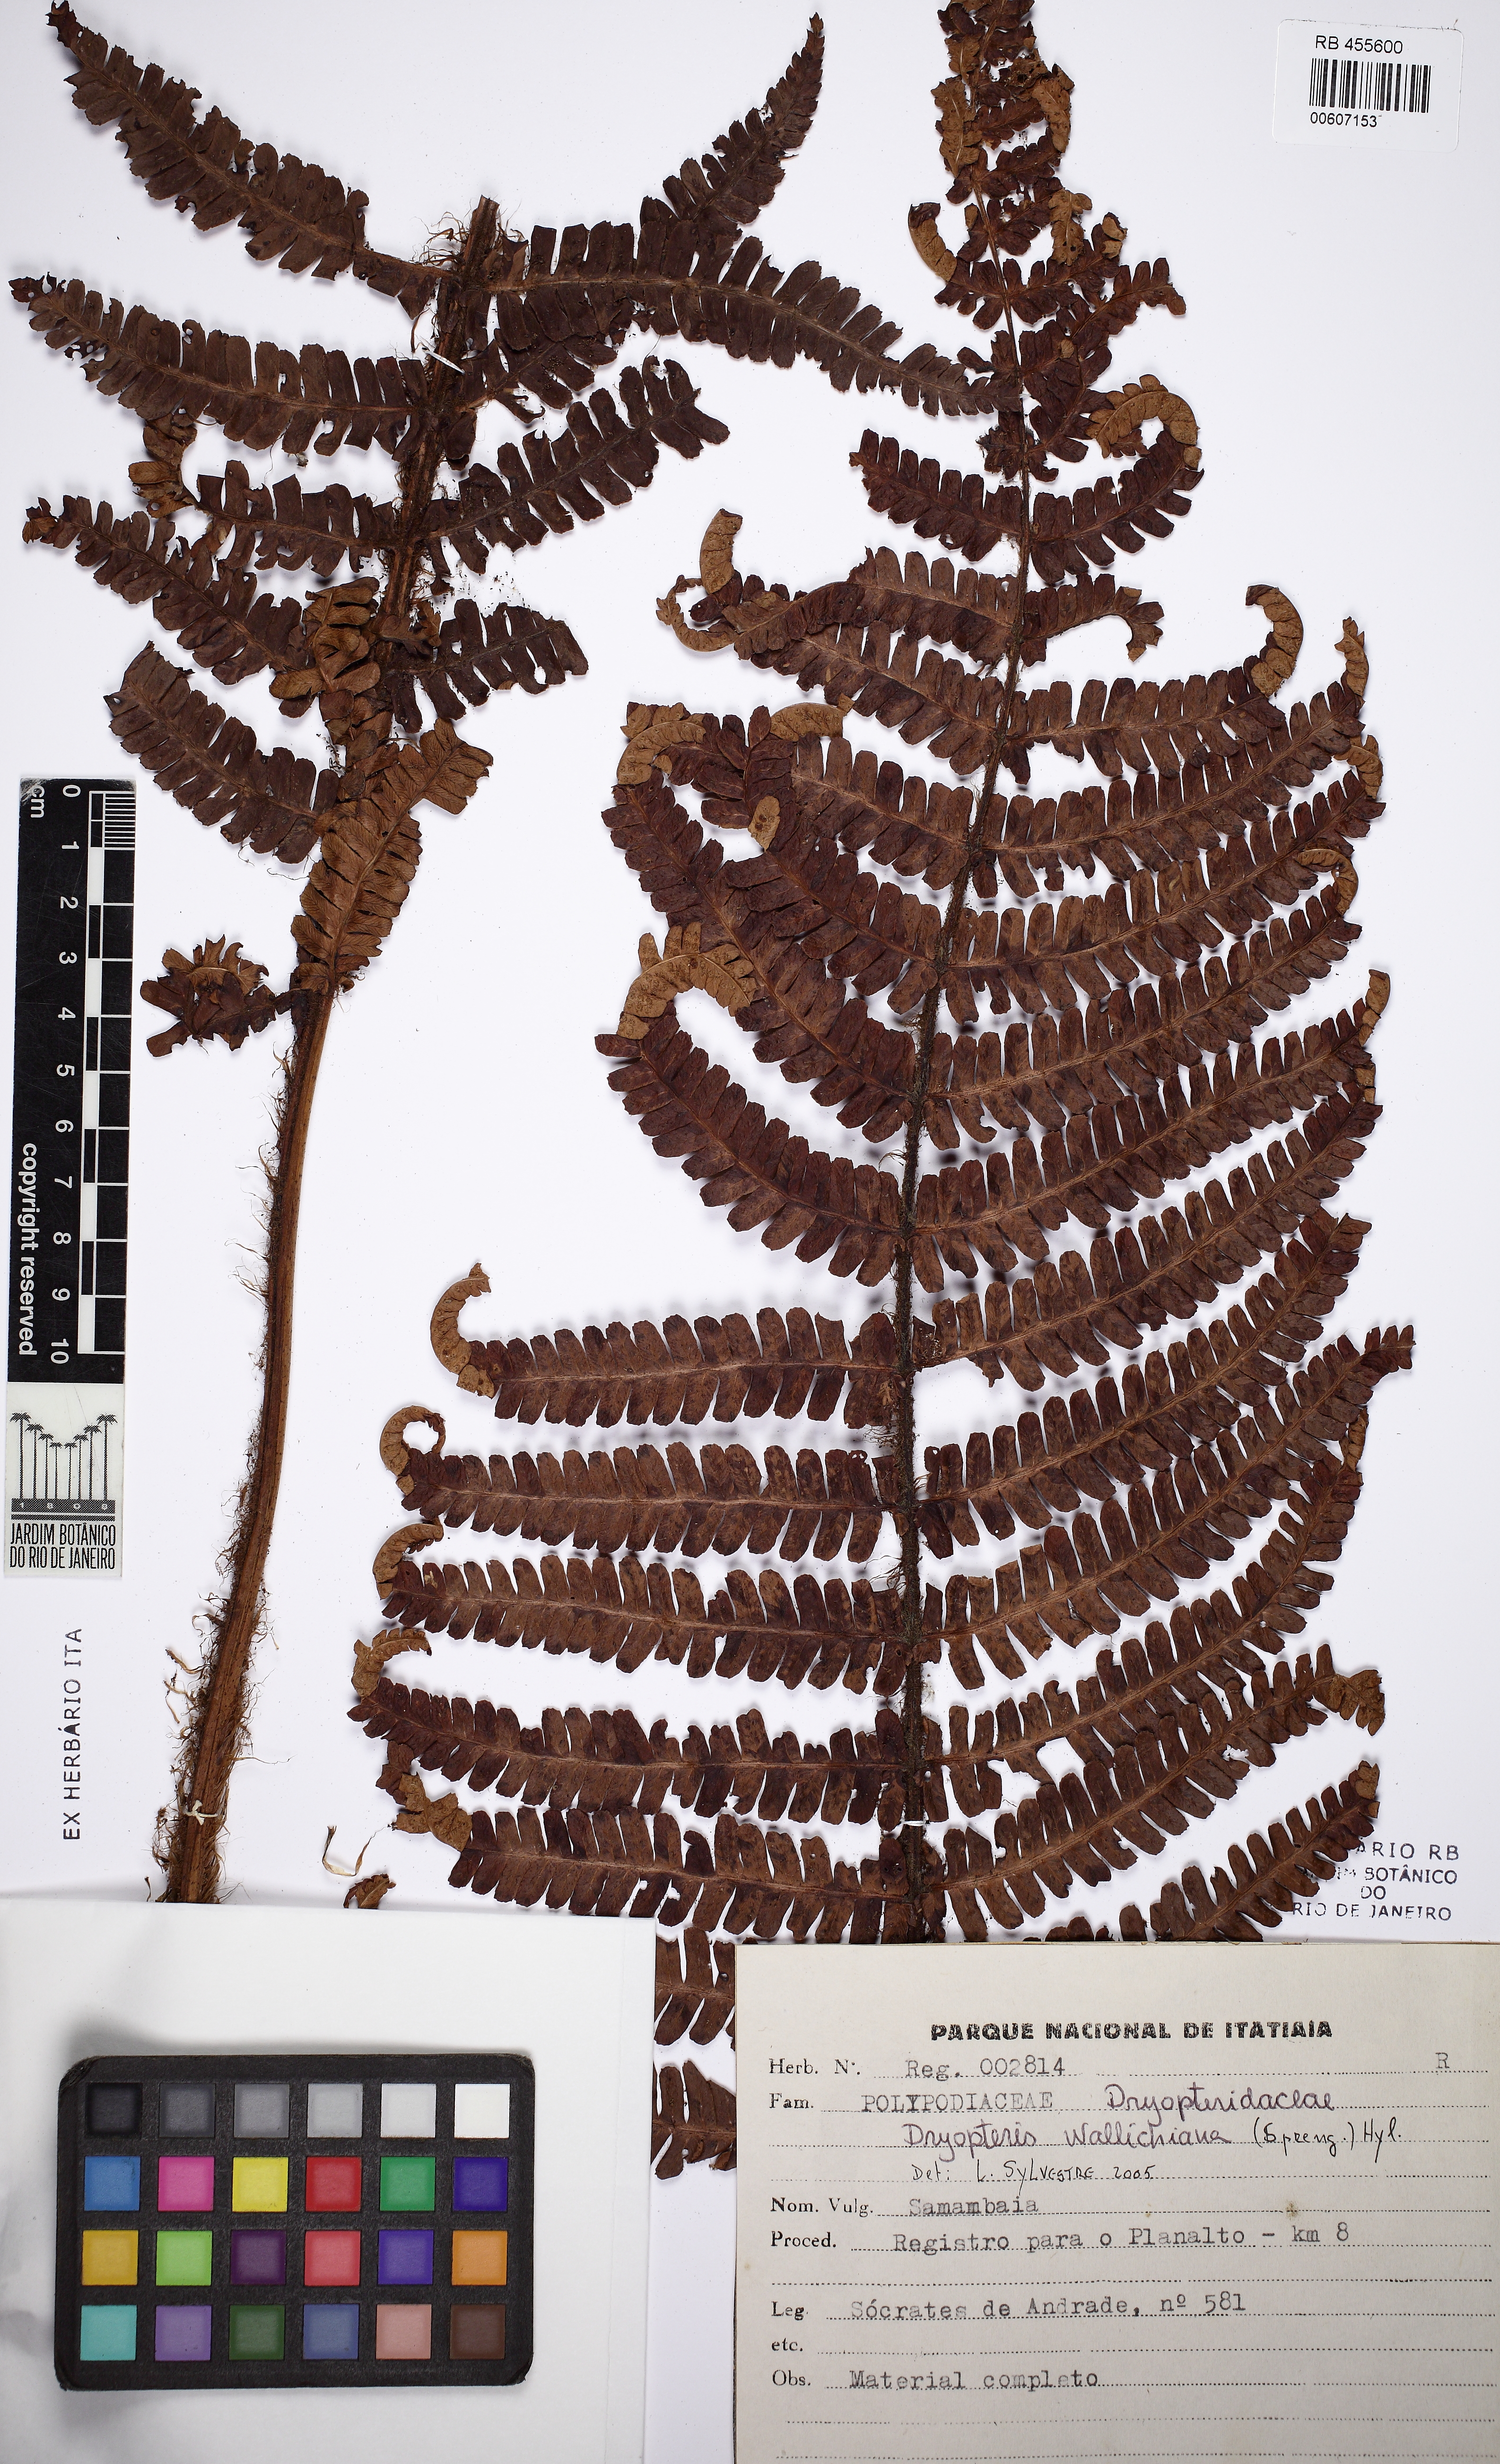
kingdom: Plantae
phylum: Tracheophyta
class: Polypodiopsida
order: Polypodiales
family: Dryopteridaceae
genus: Dryopteris
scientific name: Dryopteris wallichiana
